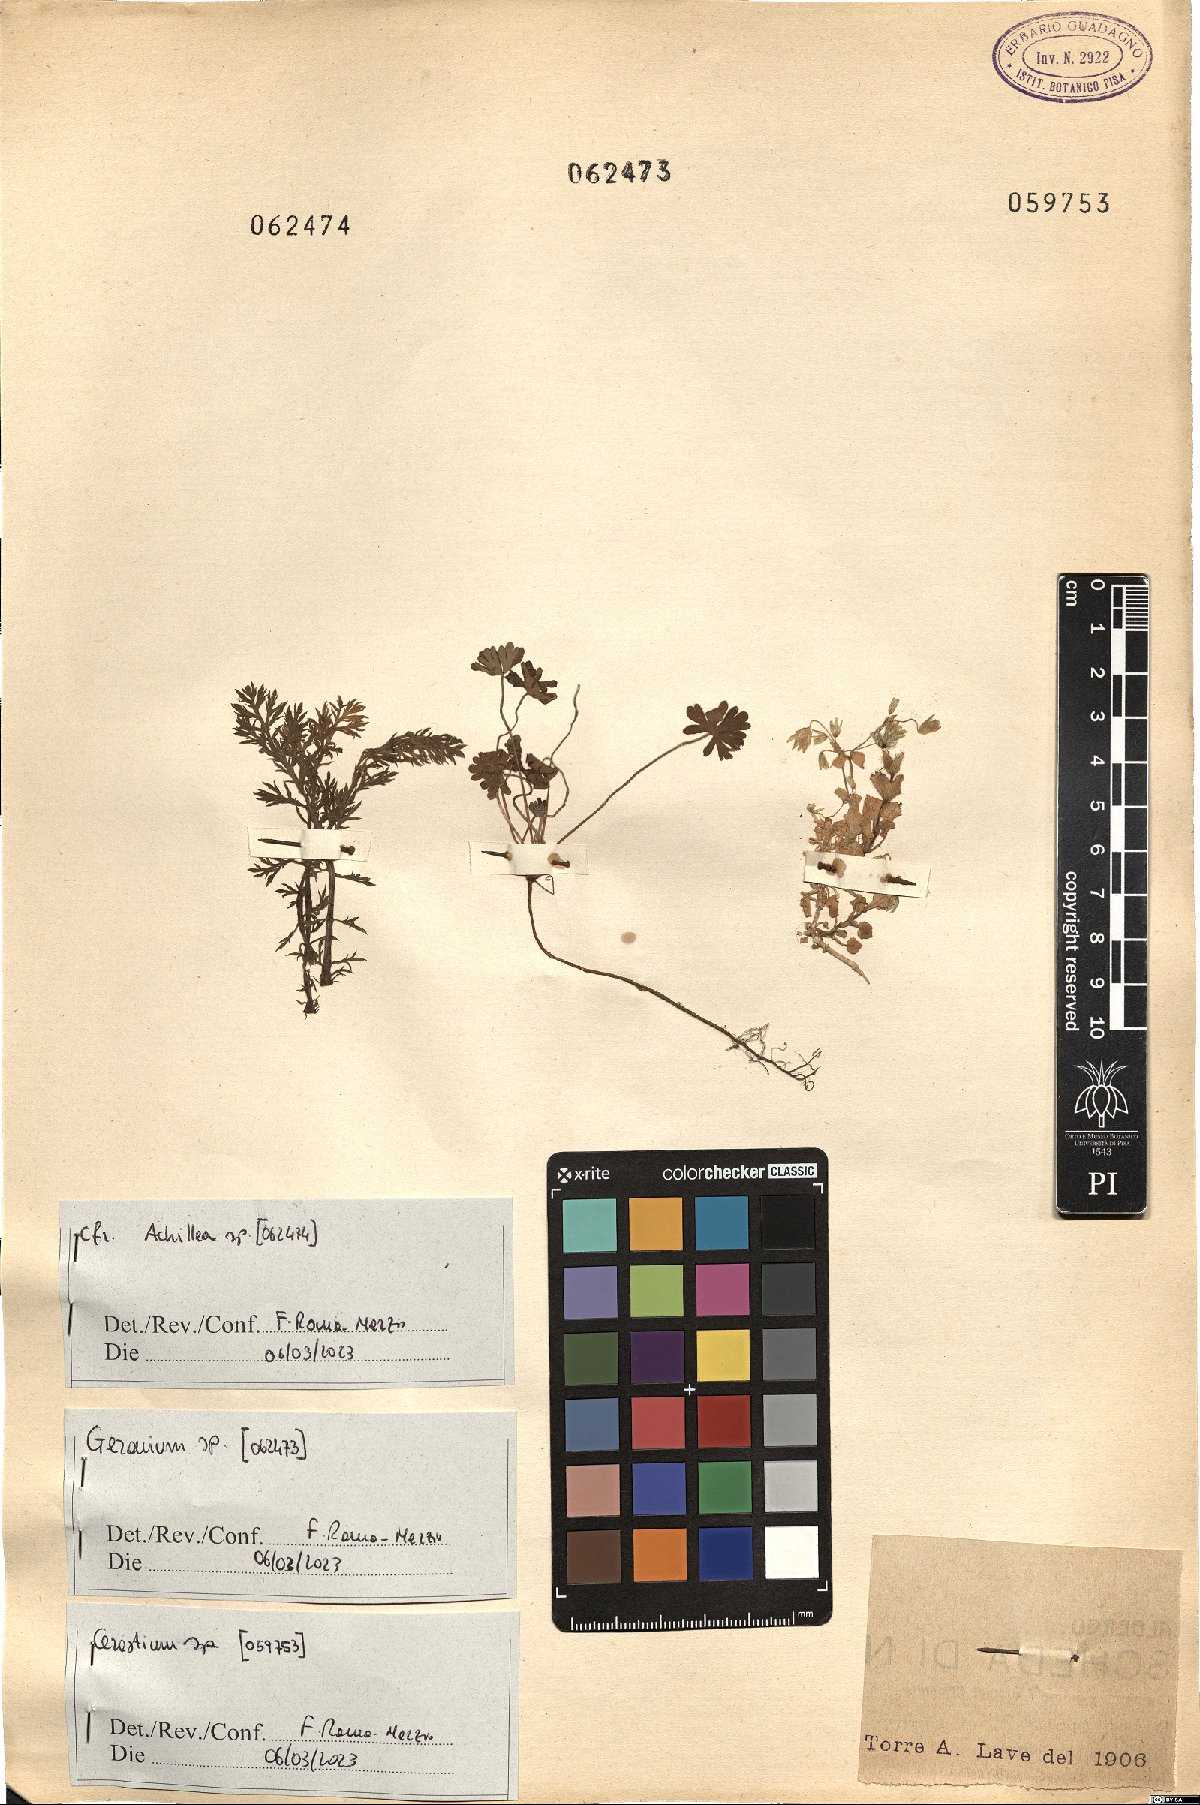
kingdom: Plantae
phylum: Tracheophyta
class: Magnoliopsida
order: Geraniales
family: Geraniaceae
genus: Geranium
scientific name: Geranium
